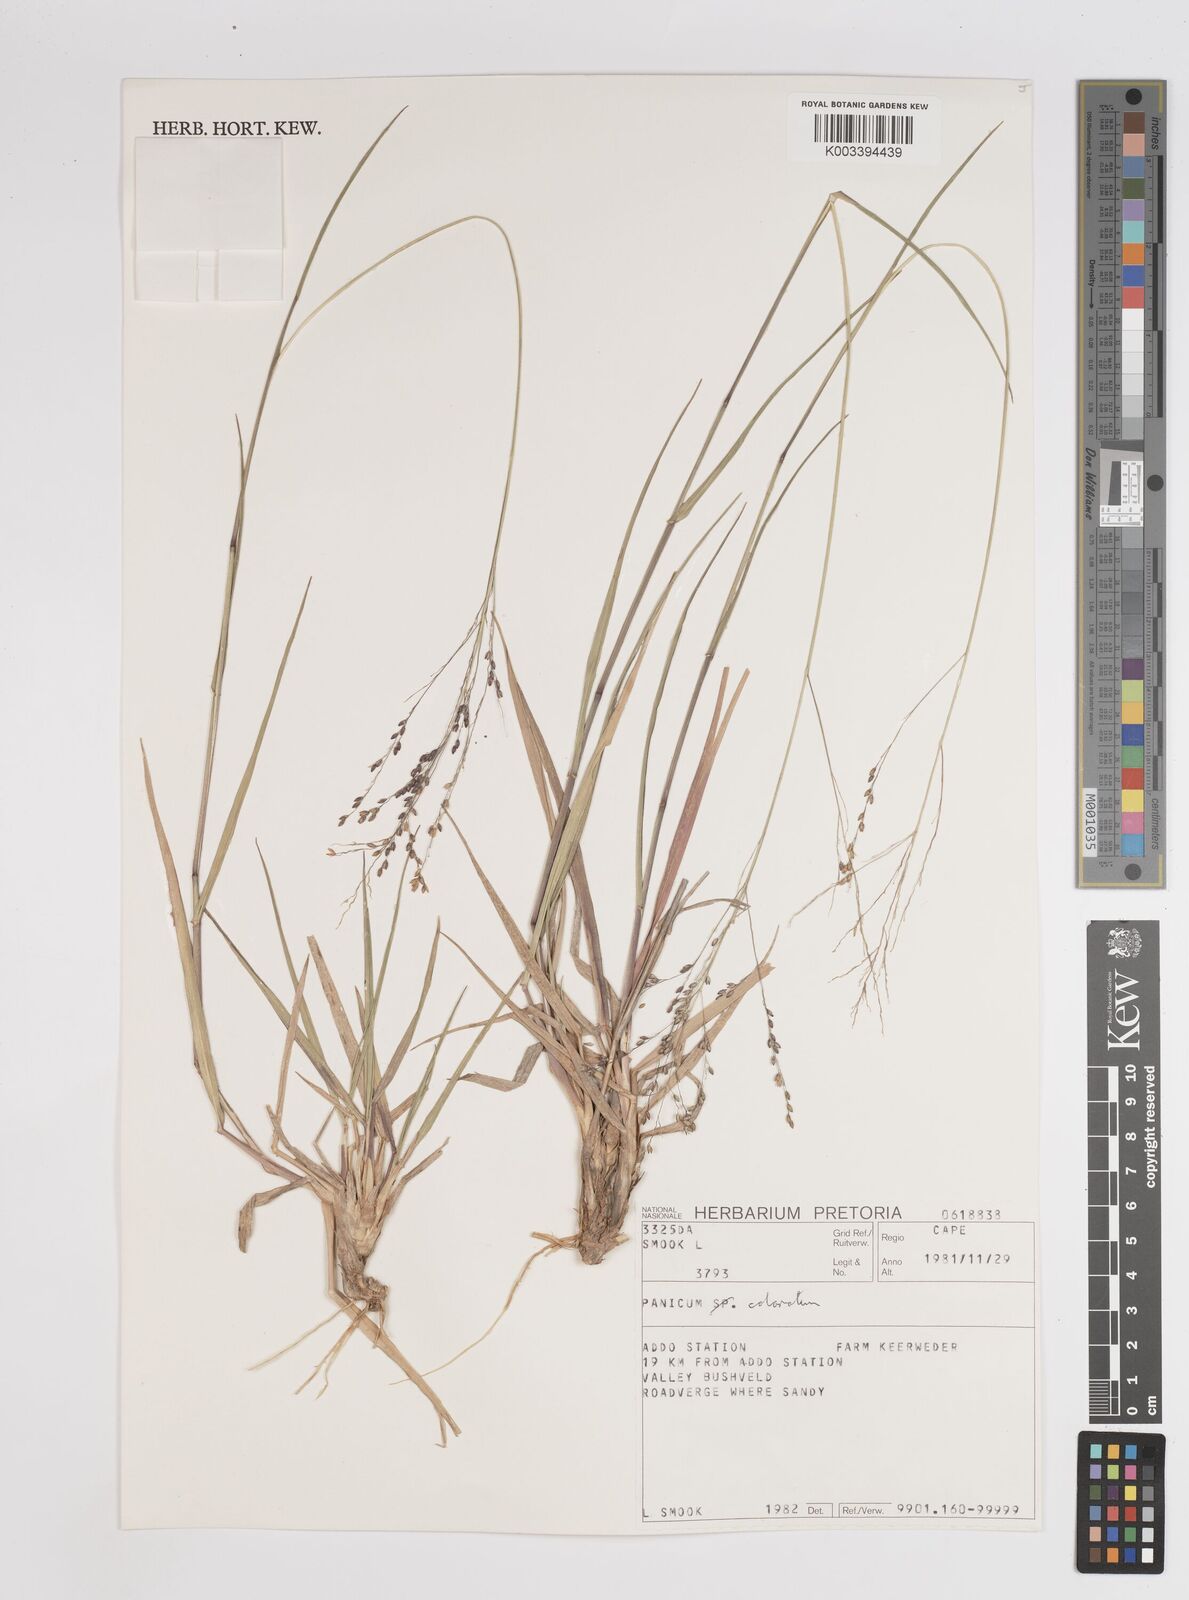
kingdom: Plantae
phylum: Tracheophyta
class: Liliopsida
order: Poales
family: Poaceae
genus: Panicum
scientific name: Panicum
